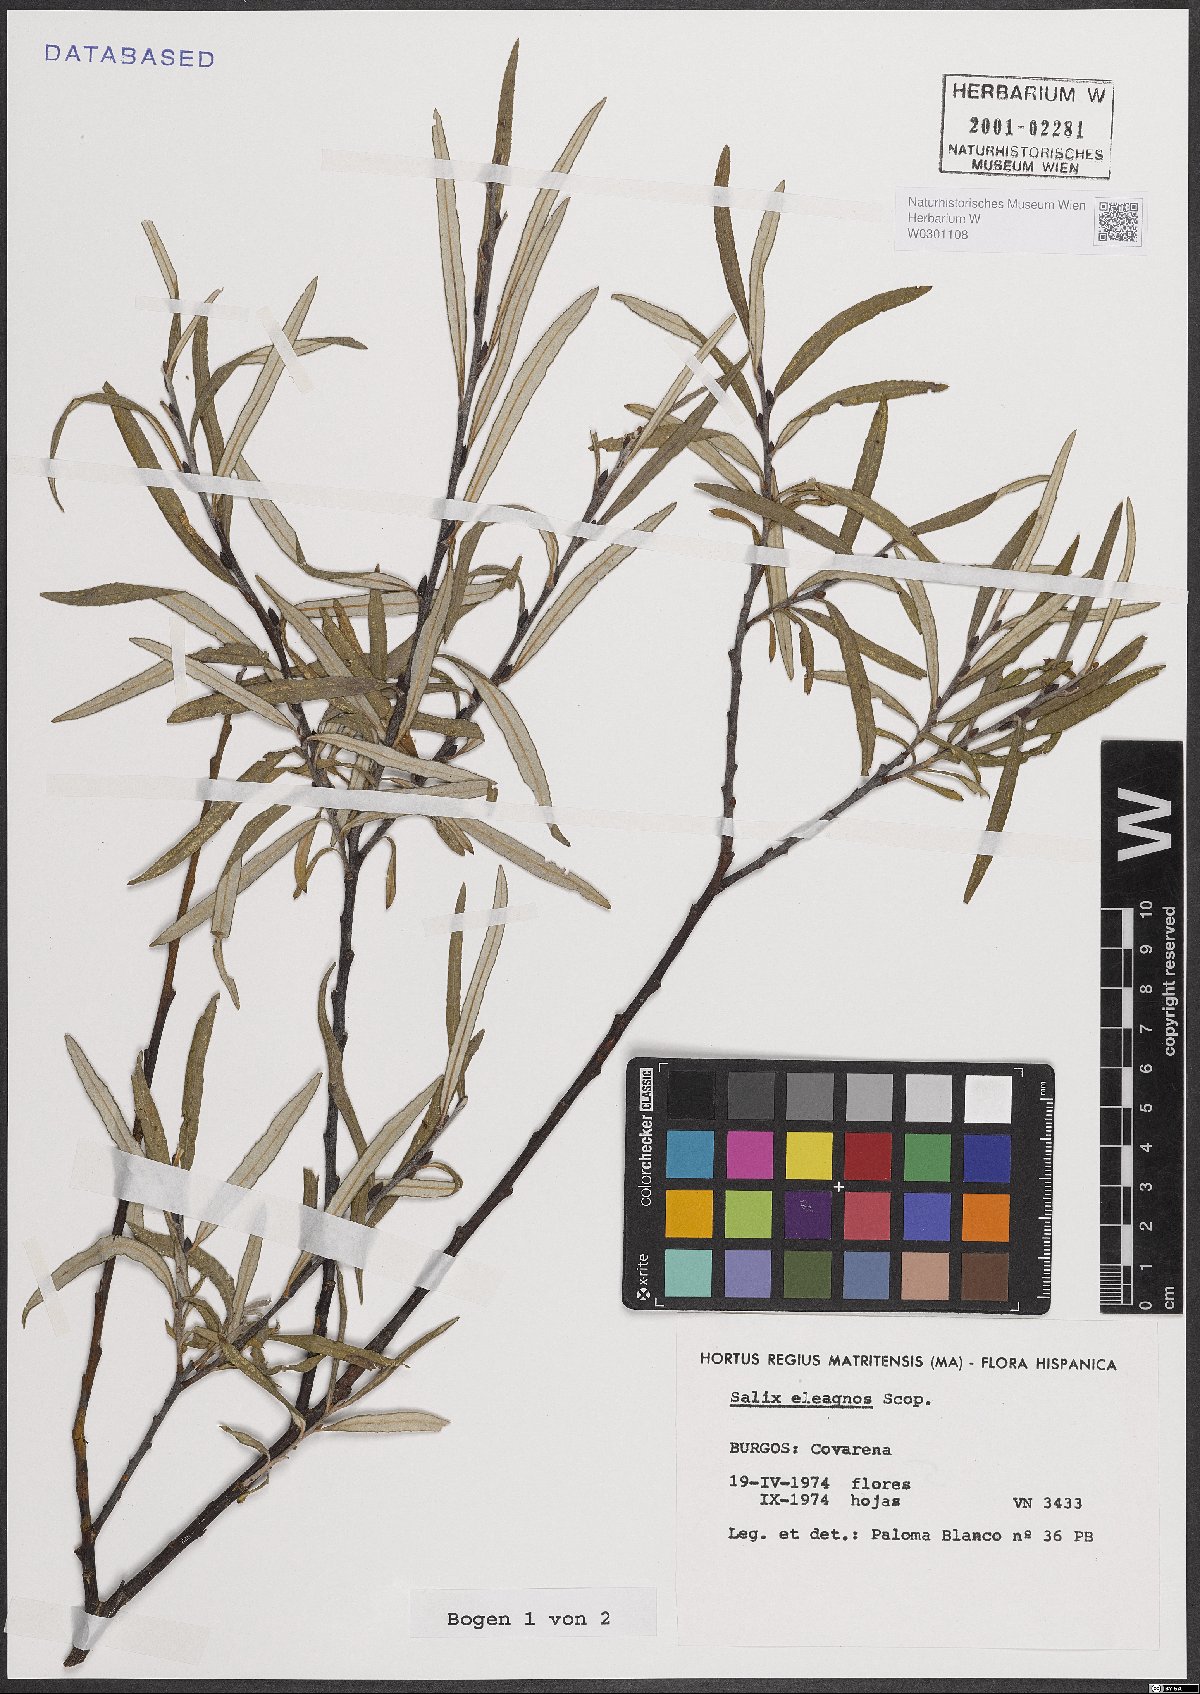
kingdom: Plantae
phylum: Tracheophyta
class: Magnoliopsida
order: Malpighiales
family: Salicaceae
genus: Salix
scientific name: Salix eleagnos
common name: Elaeagnus willow
